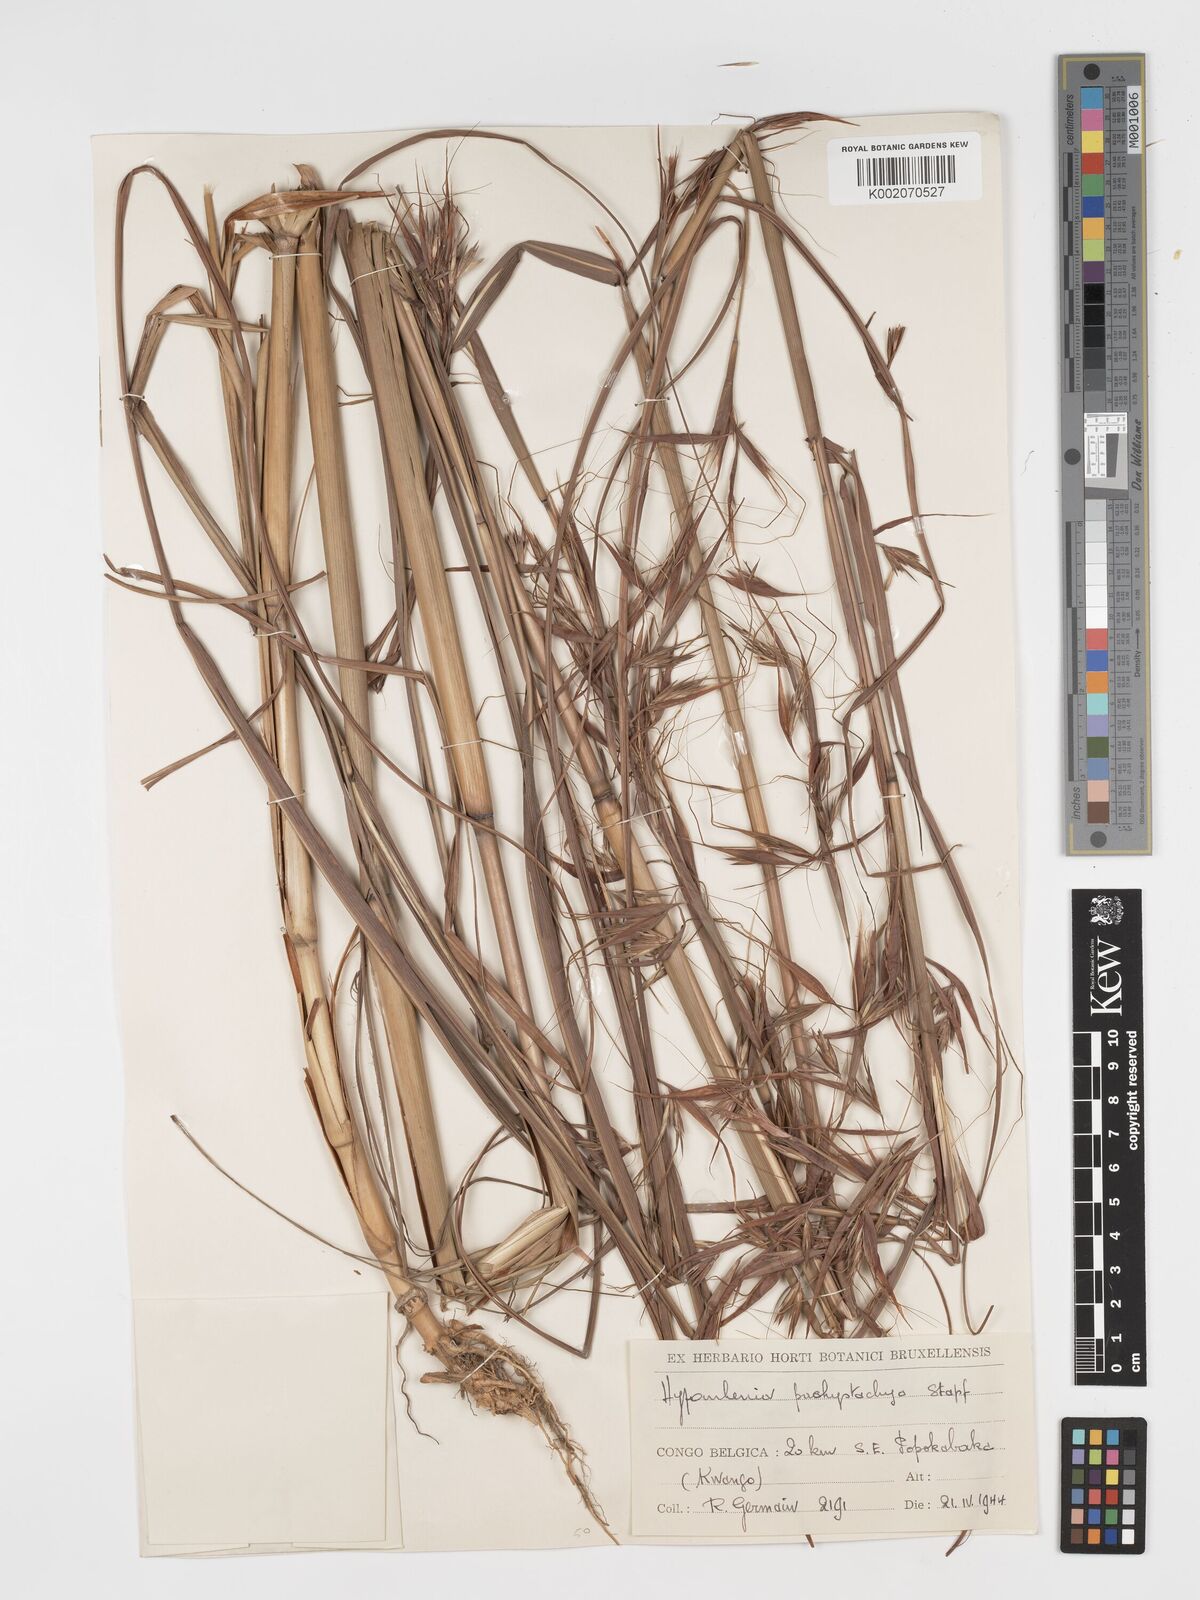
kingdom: Plantae
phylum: Tracheophyta
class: Liliopsida
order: Poales
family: Poaceae
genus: Hyparrhenia
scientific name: Hyparrhenia diplandra
